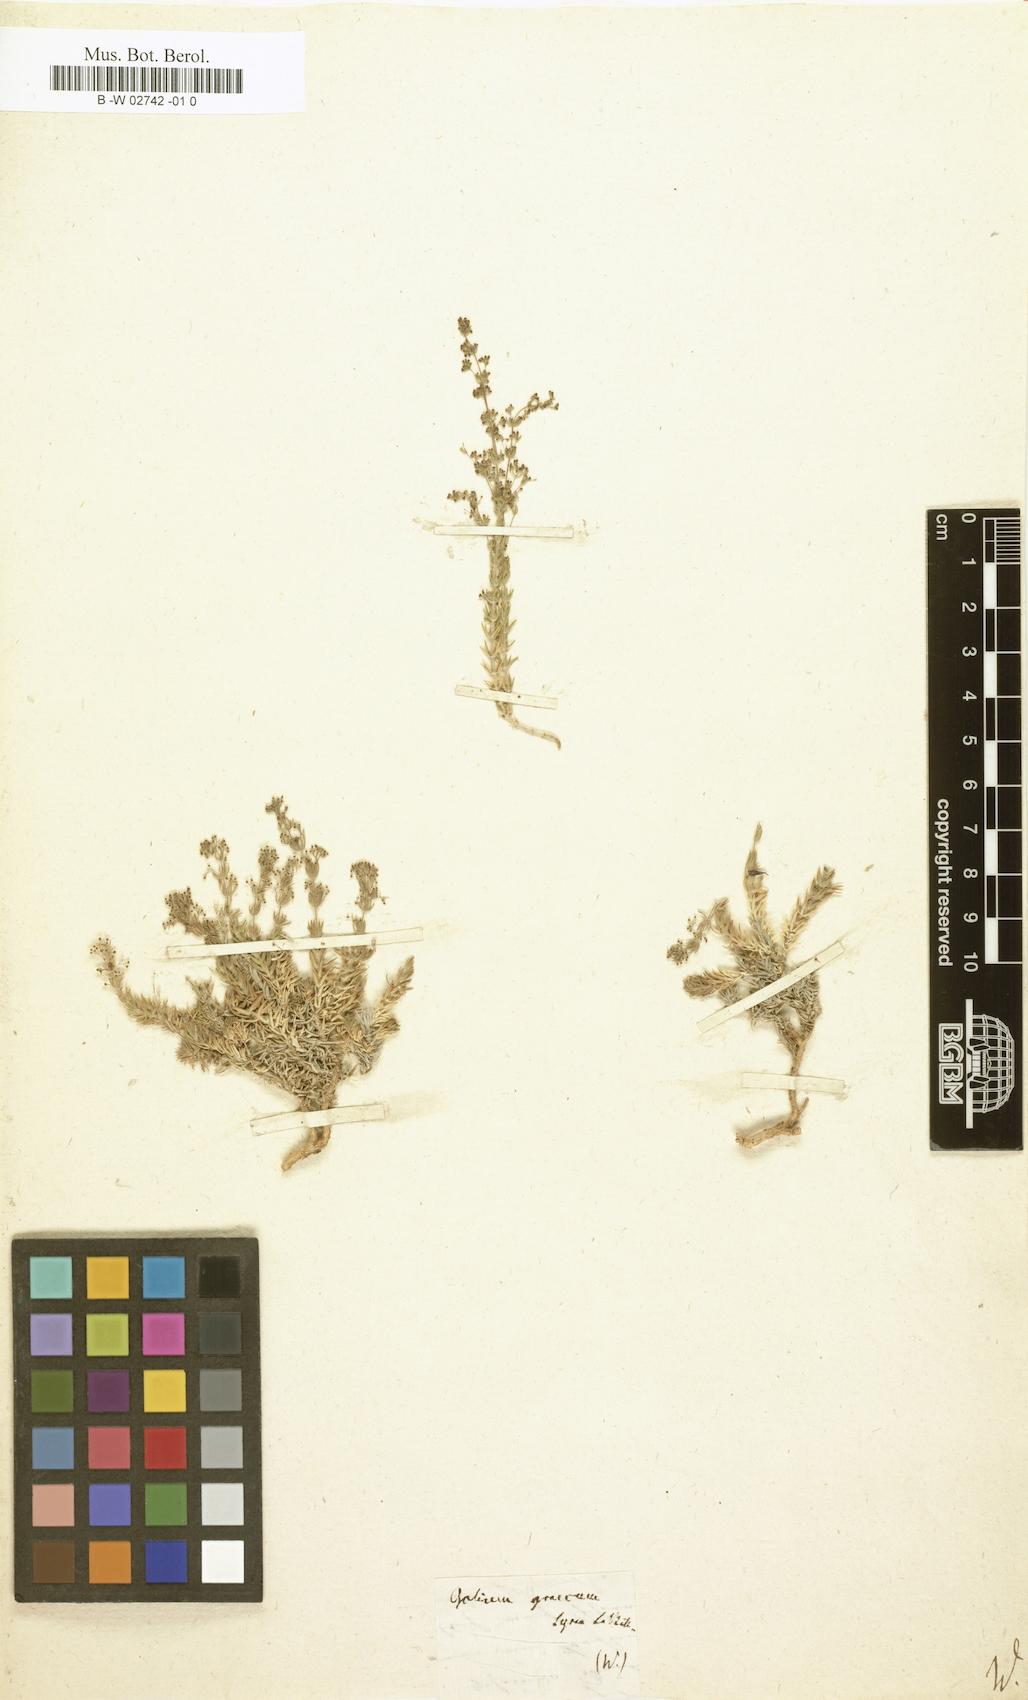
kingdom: Plantae
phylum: Tracheophyta
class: Magnoliopsida
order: Gentianales
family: Rubiaceae
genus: Galium
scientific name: Galium graecum
